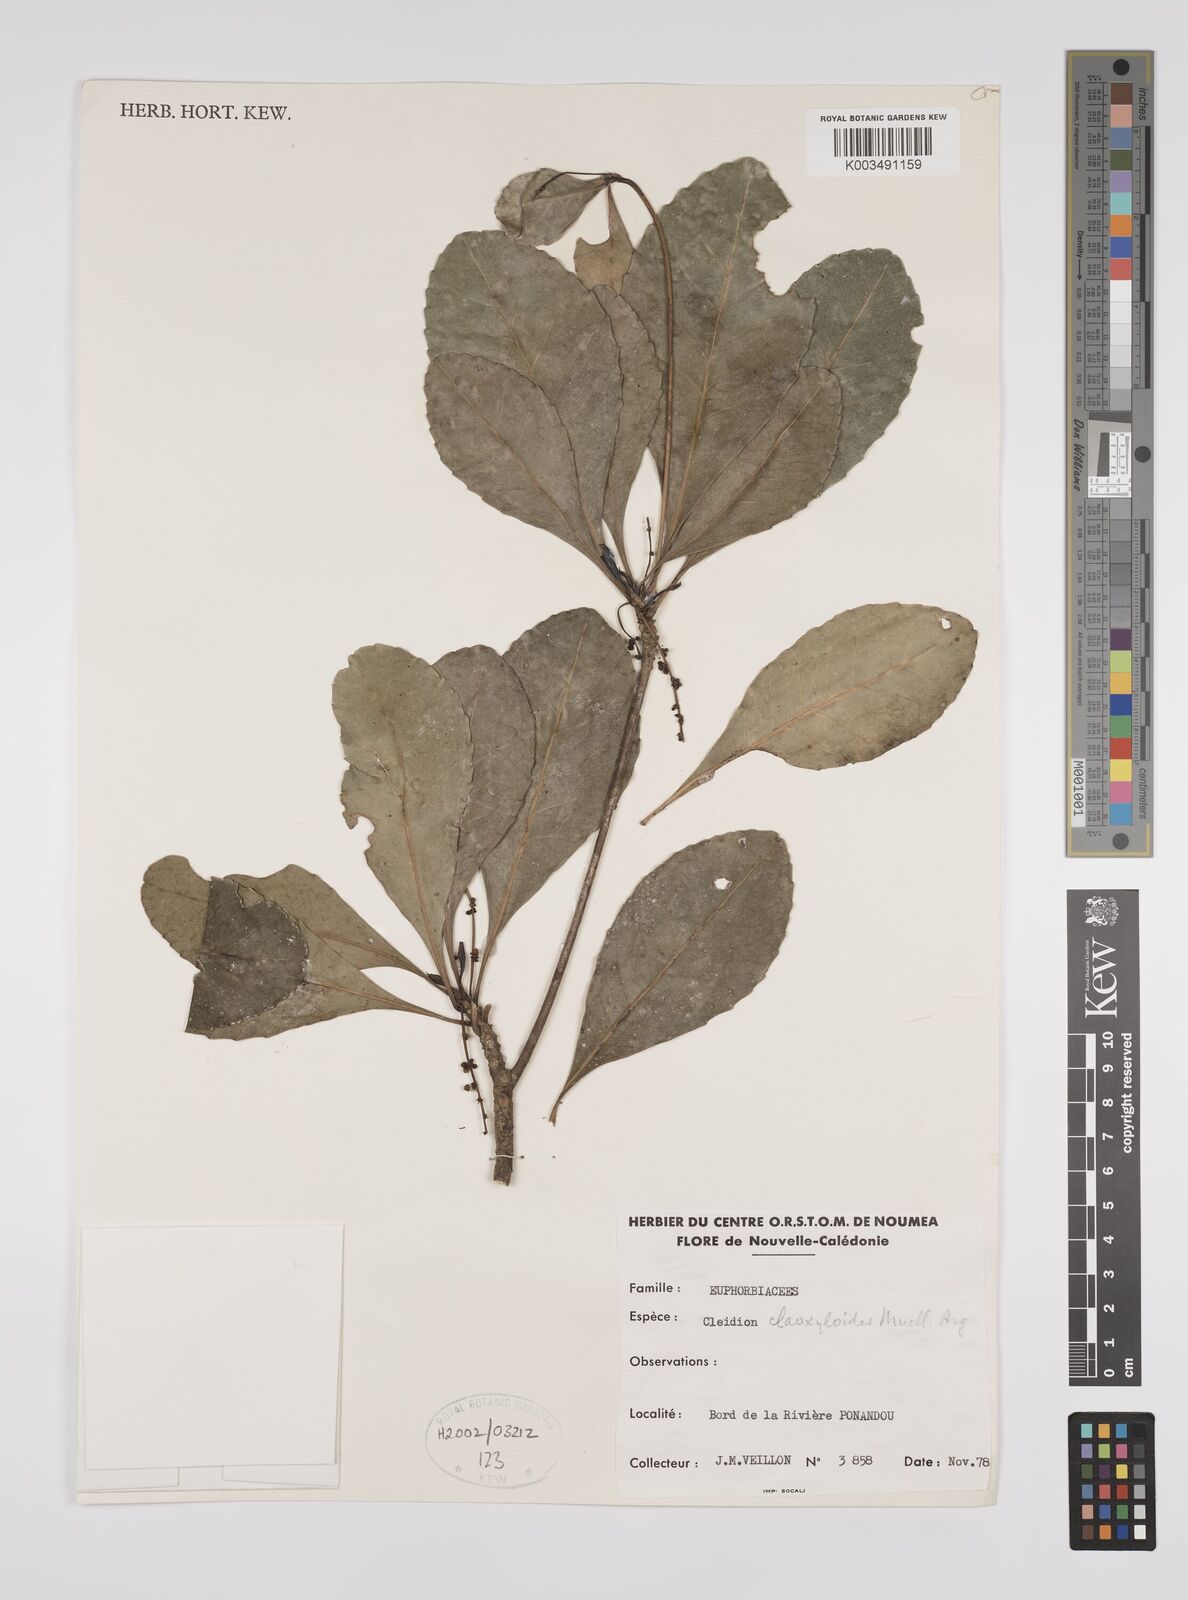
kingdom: Plantae
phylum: Tracheophyta
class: Magnoliopsida
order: Malpighiales
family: Euphorbiaceae
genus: Cleidion
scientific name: Cleidion claoxyloides
